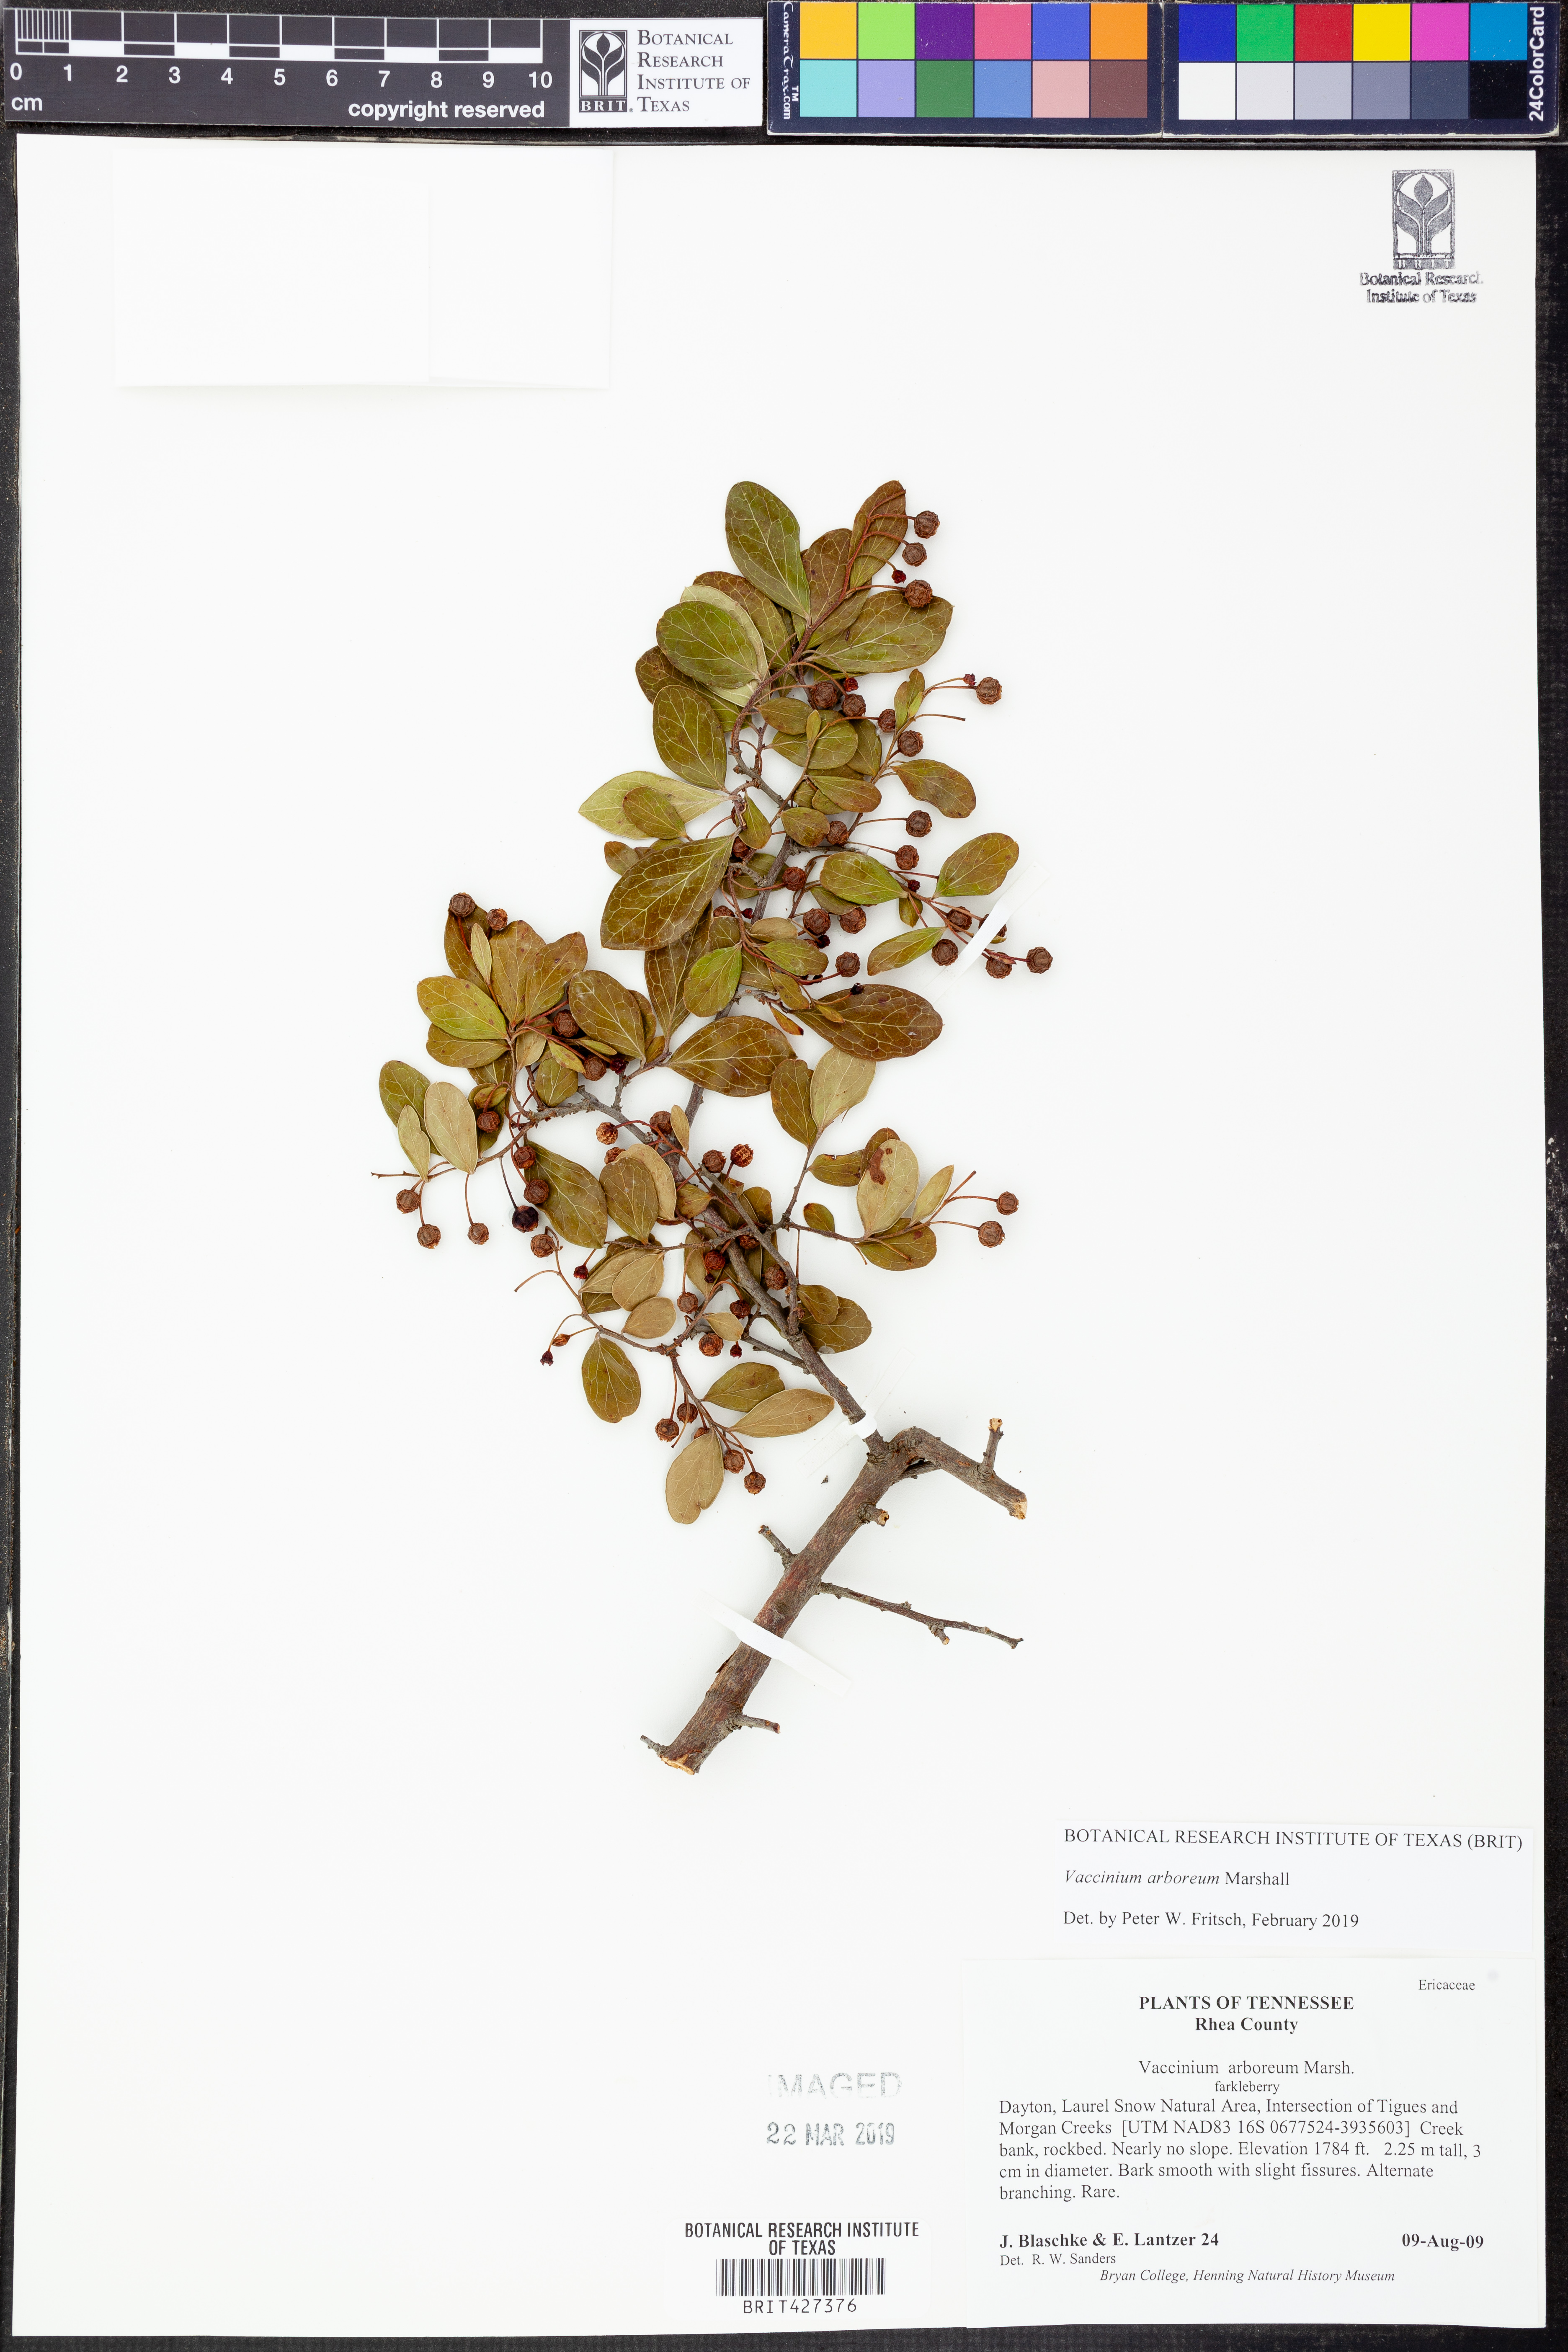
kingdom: Plantae
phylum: Tracheophyta
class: Magnoliopsida
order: Ericales
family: Ericaceae
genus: Vaccinium
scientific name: Vaccinium arboreum
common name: Farkleberry
